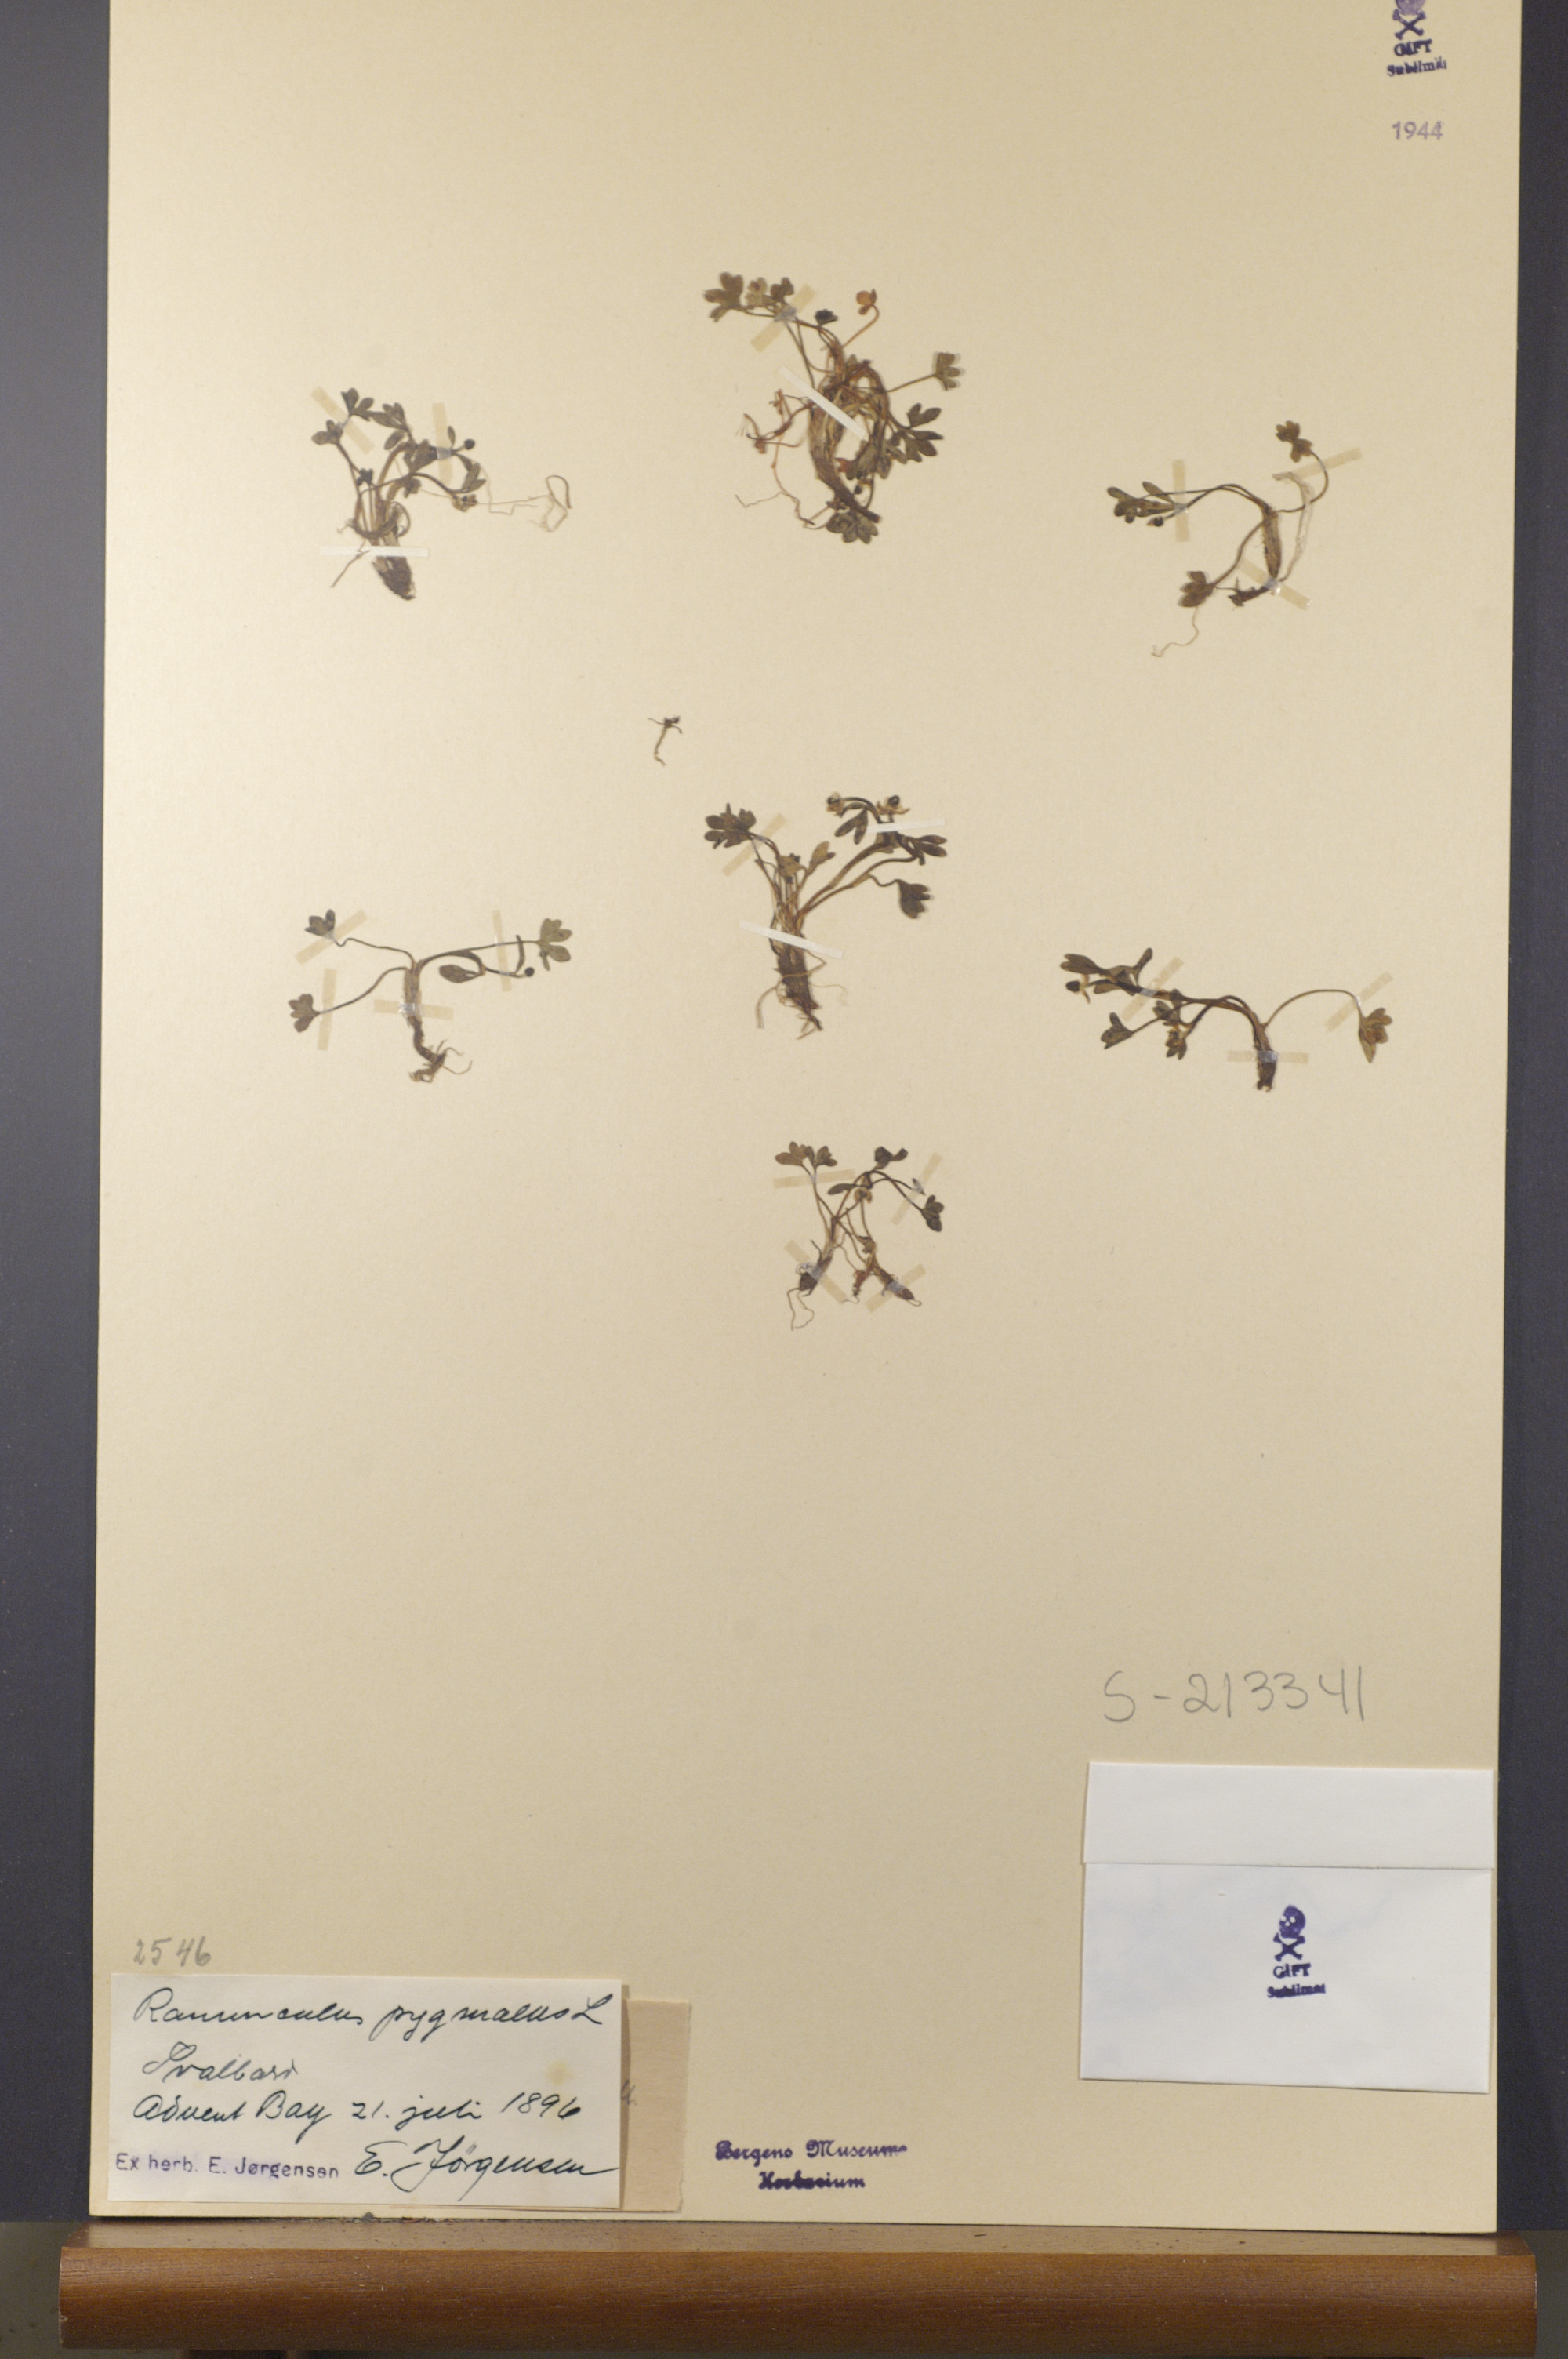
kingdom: Plantae
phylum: Tracheophyta
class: Magnoliopsida
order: Ranunculales
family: Ranunculaceae
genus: Ranunculus
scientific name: Ranunculus pygmaeus
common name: Dwarf buttercup
